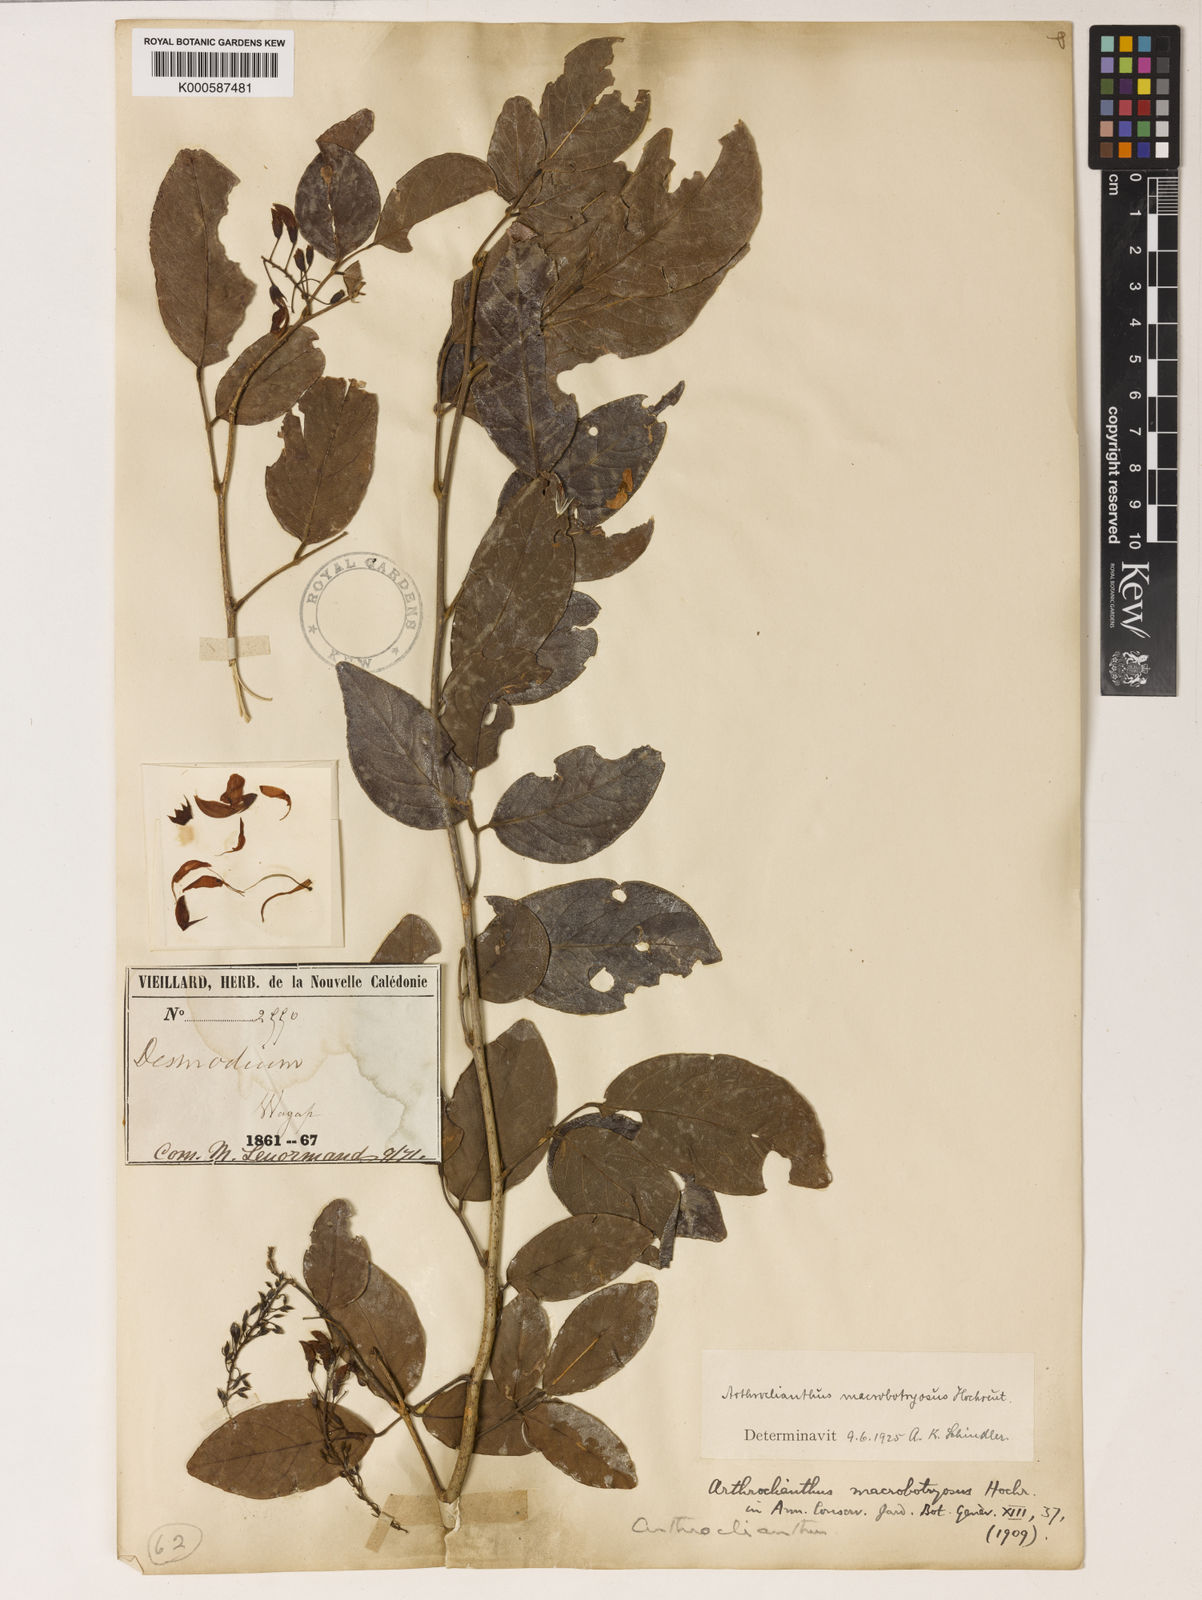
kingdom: Plantae
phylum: Tracheophyta
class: Magnoliopsida
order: Fabales
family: Fabaceae
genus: Arthroclianthus
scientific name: Arthroclianthus macrobotryosus
